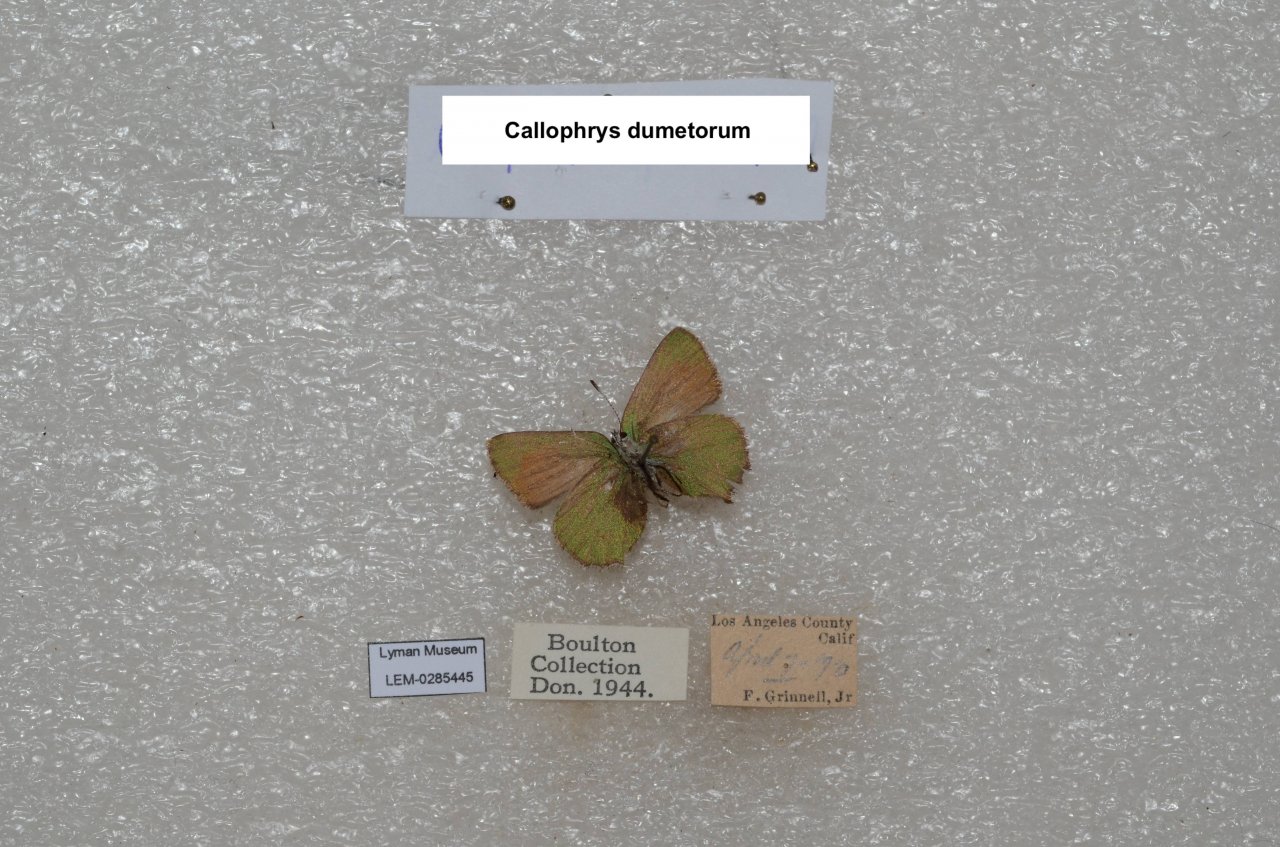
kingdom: Animalia
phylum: Arthropoda
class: Insecta
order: Lepidoptera
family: Lycaenidae
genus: Callophrys
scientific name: Callophrys dumetorum
